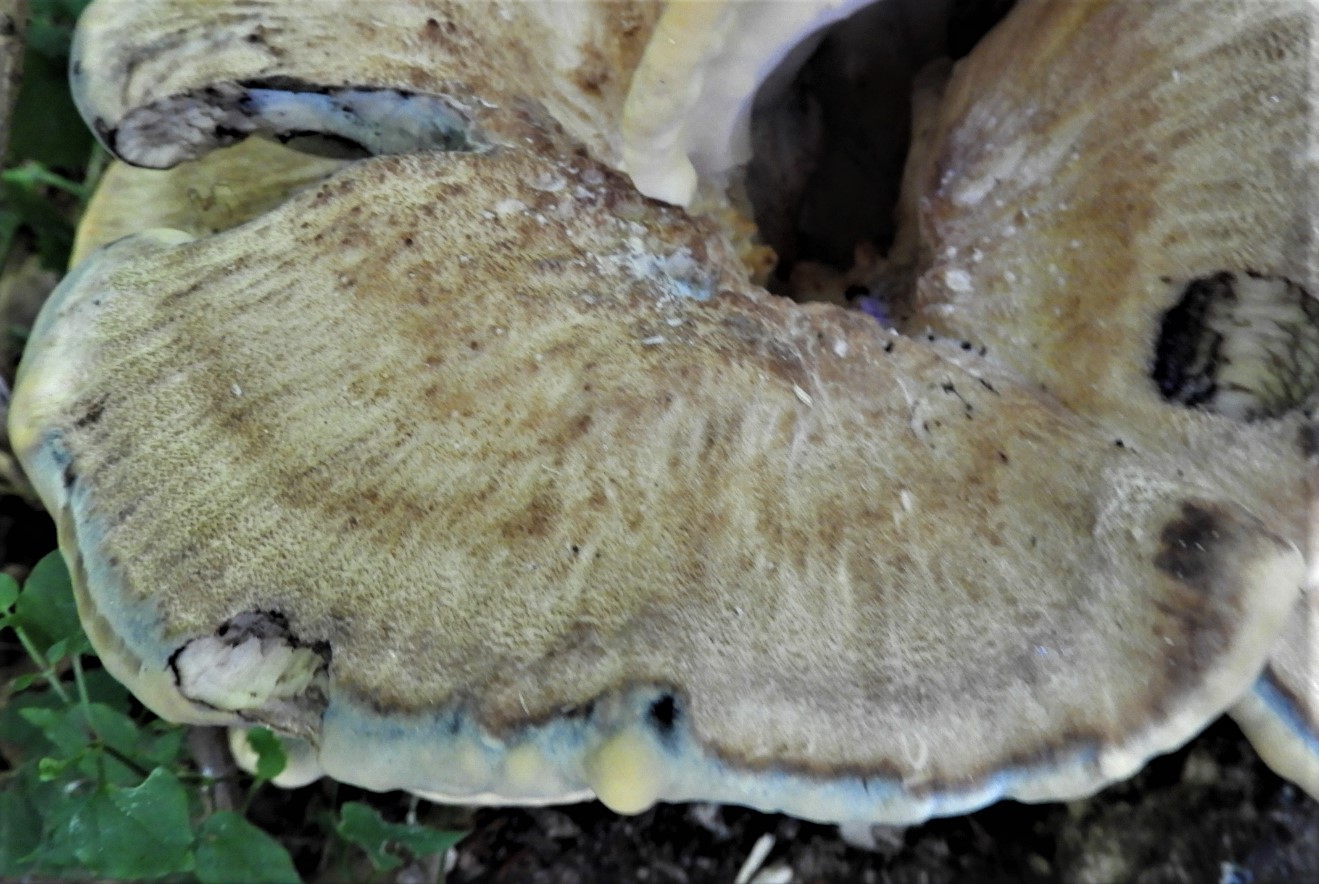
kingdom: Fungi
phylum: Basidiomycota
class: Agaricomycetes
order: Polyporales
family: Meripilaceae
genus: Meripilus
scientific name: Meripilus giganteus
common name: kæmpeporesvamp
